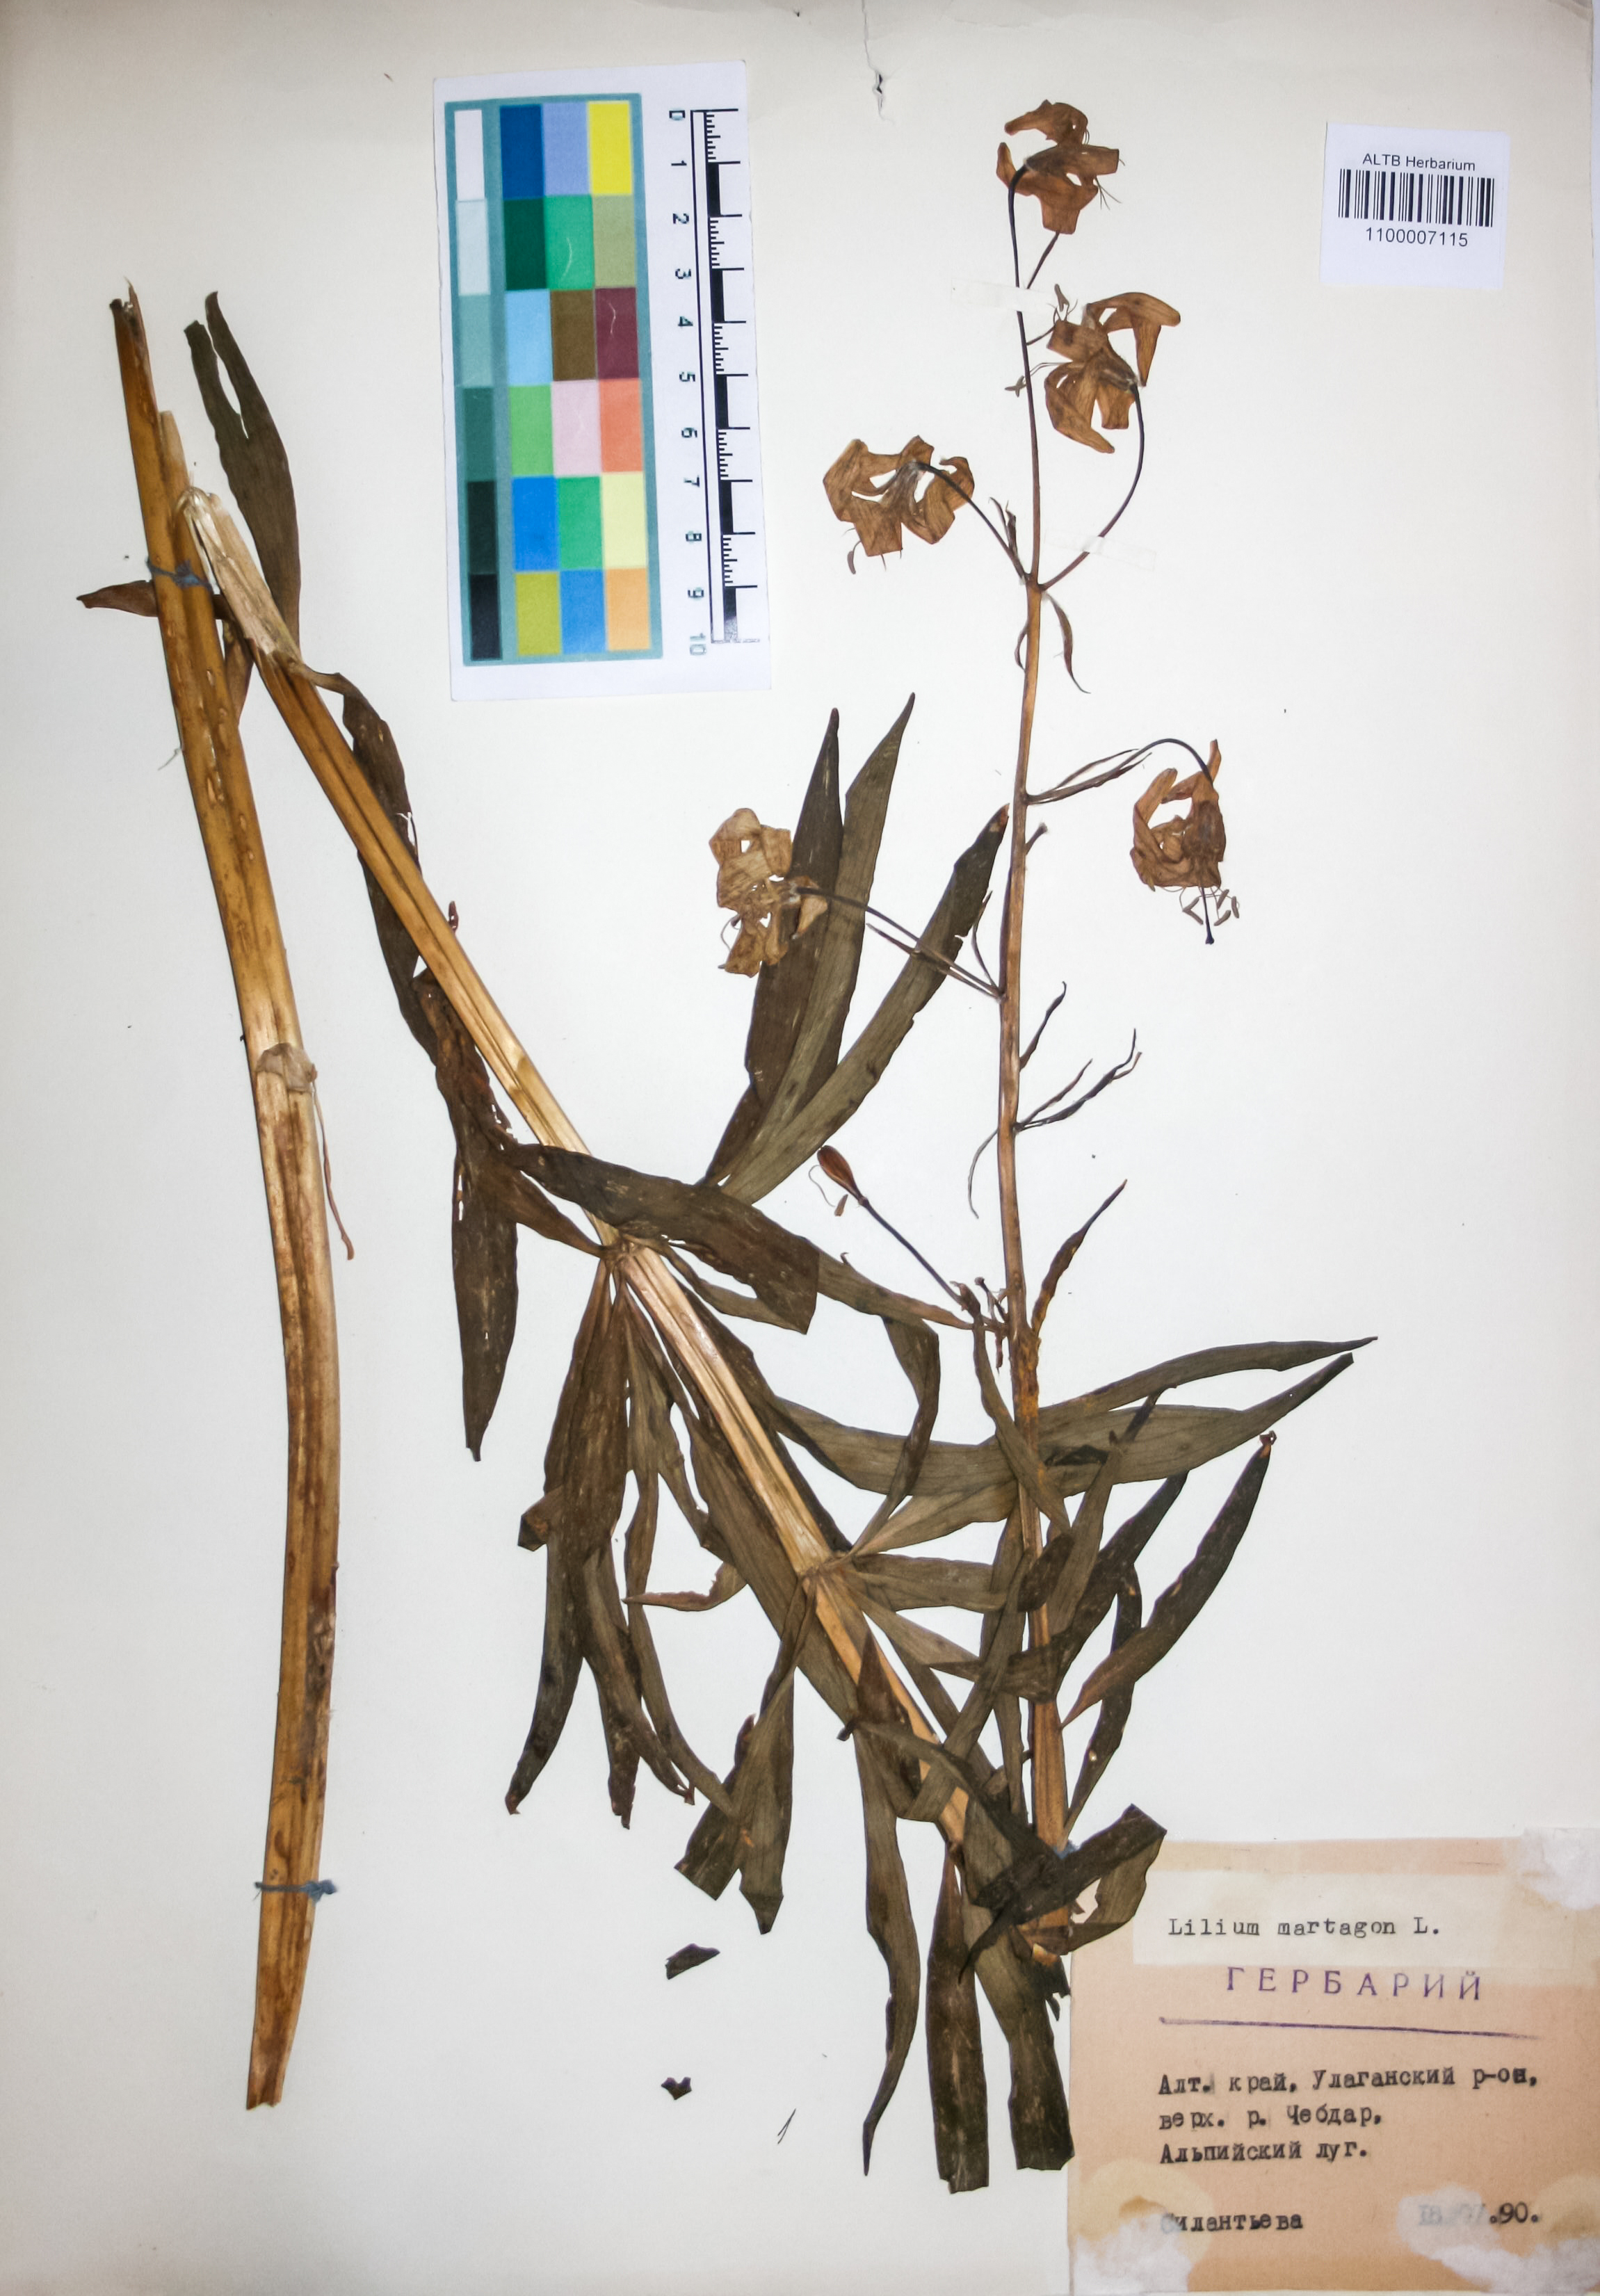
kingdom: Plantae
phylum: Tracheophyta
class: Liliopsida
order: Liliales
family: Liliaceae
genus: Lilium
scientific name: Lilium martagon
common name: Martagon lily
